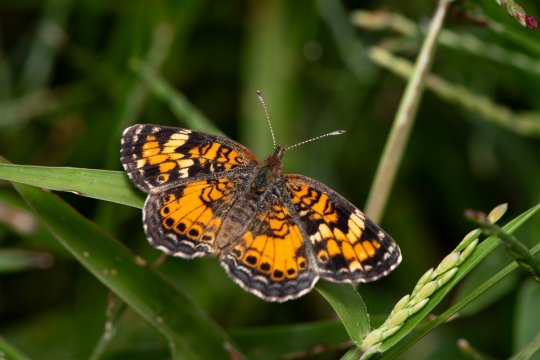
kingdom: Animalia
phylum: Arthropoda
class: Insecta
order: Lepidoptera
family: Nymphalidae
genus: Phyciodes
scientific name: Phyciodes phaon
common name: Phaon Crescent
